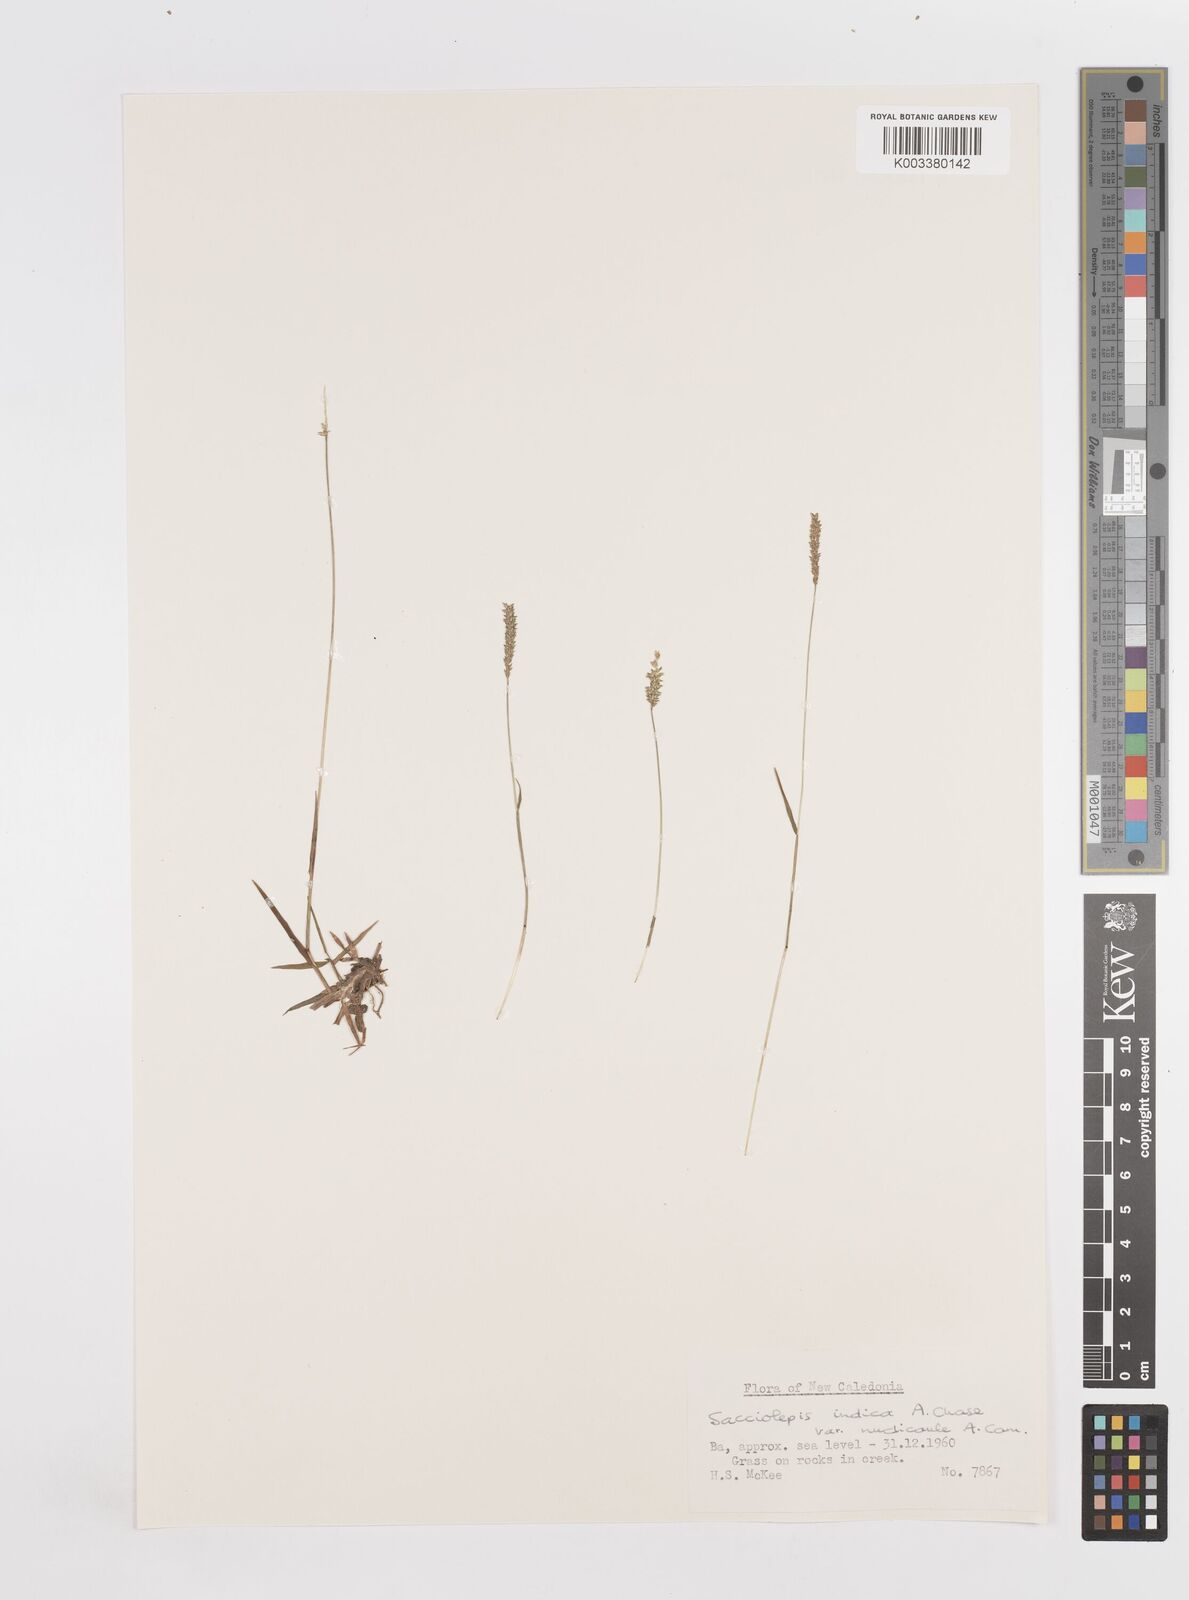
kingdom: Plantae
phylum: Tracheophyta
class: Liliopsida
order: Poales
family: Poaceae
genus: Sacciolepis
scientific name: Sacciolepis indica
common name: Glenwoodgrass
